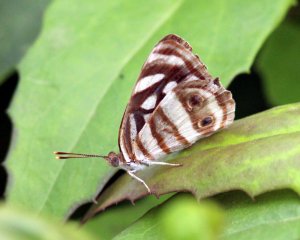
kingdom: Animalia
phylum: Arthropoda
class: Insecta
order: Lepidoptera
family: Nymphalidae
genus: Dynamine
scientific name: Dynamine mylitta
